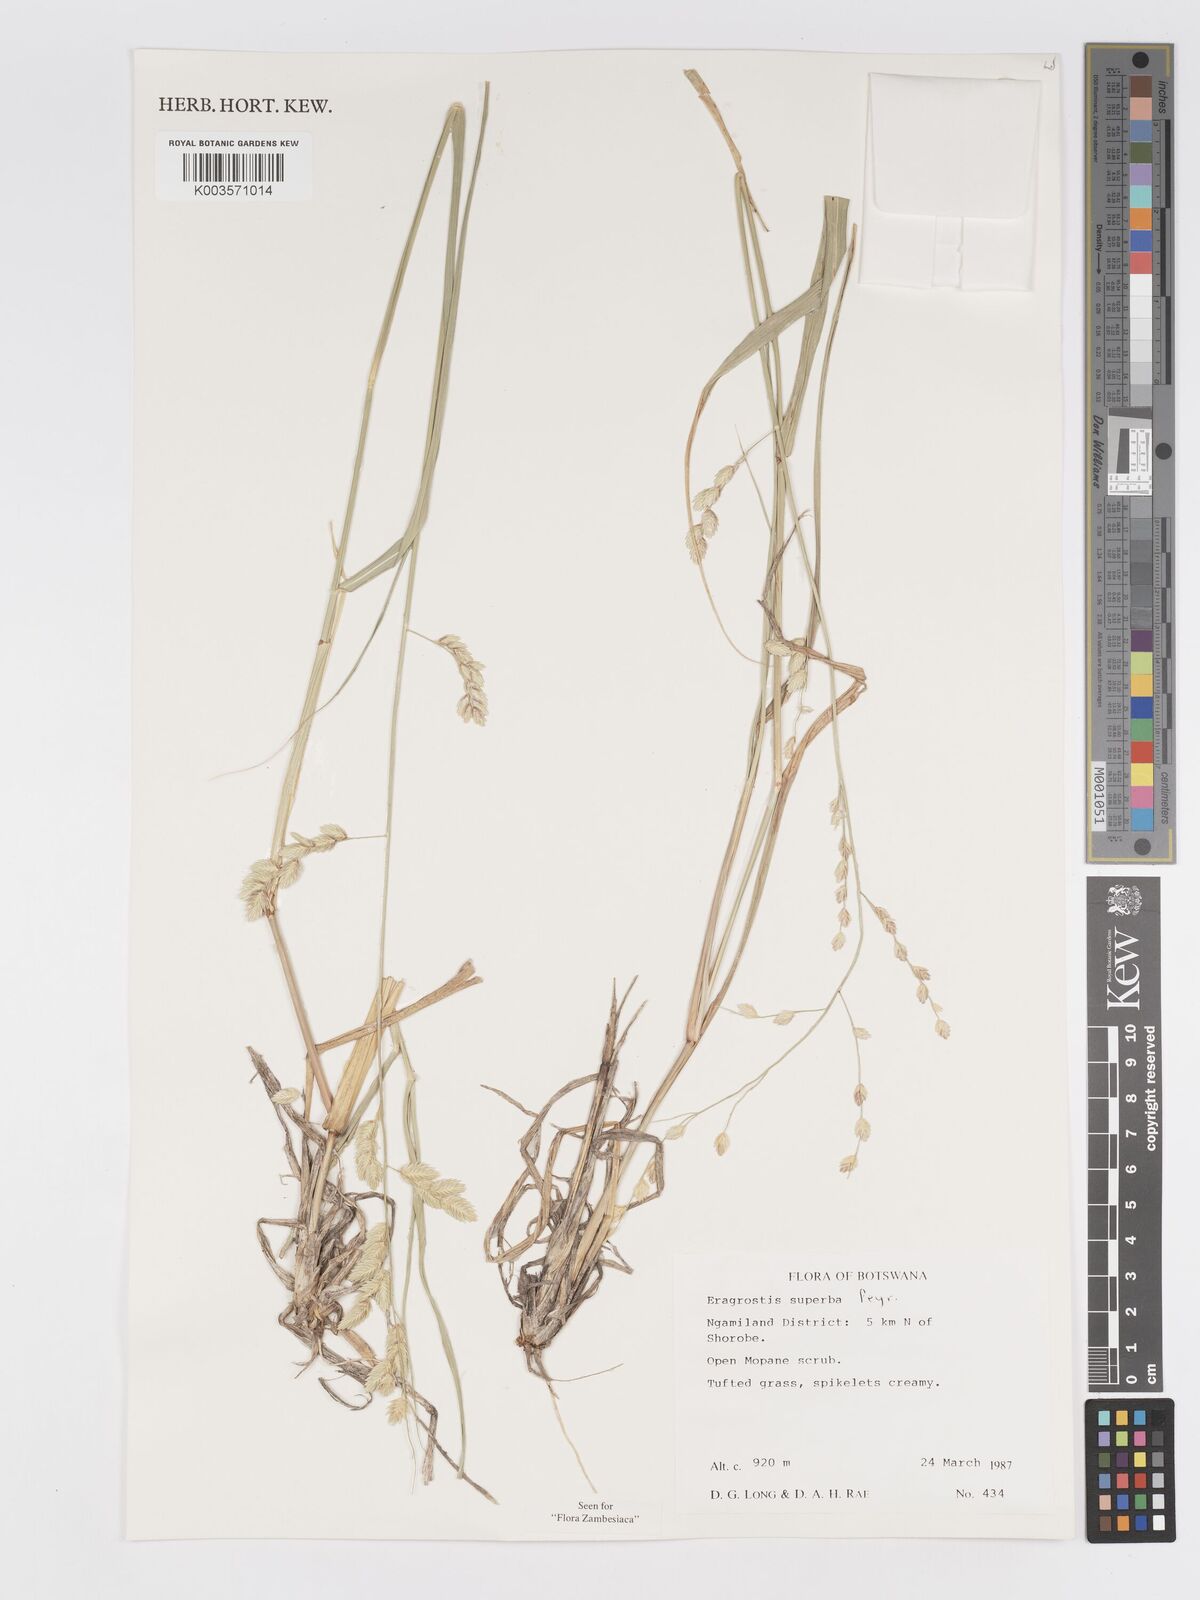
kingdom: Plantae
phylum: Tracheophyta
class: Liliopsida
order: Poales
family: Poaceae
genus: Eragrostis
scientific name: Eragrostis superba
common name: Wilman lovegrass
